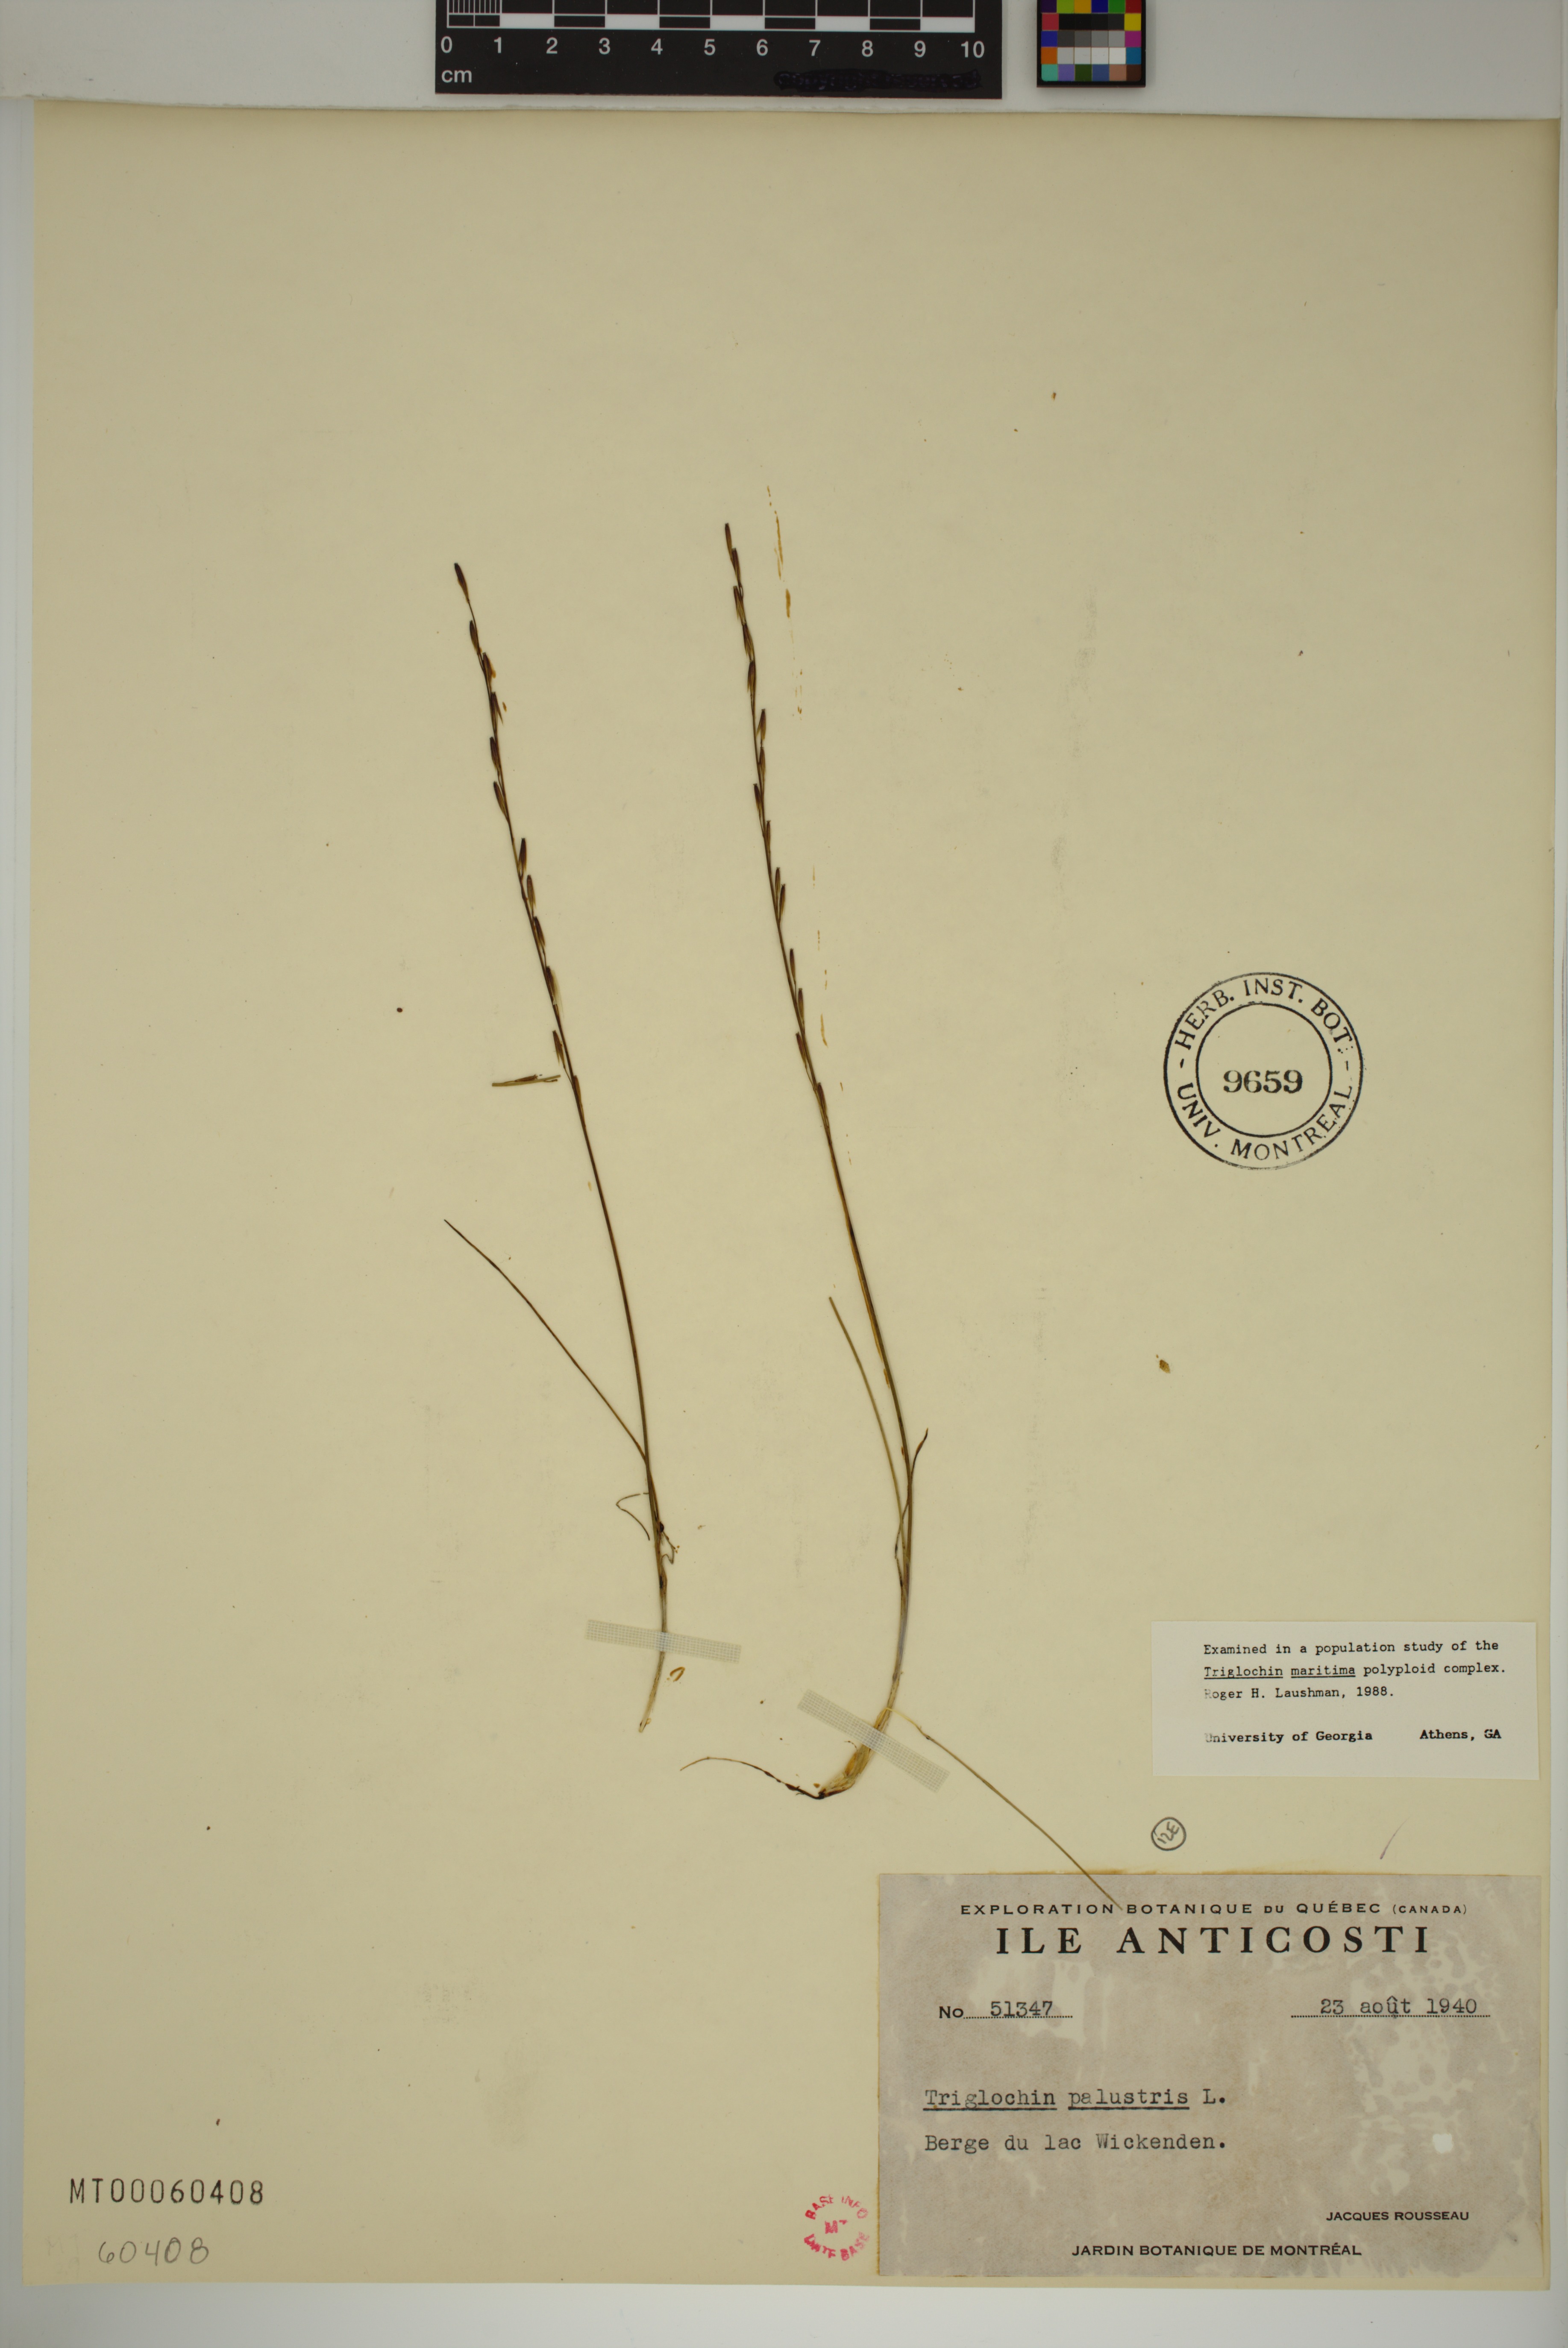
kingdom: Plantae
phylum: Tracheophyta
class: Liliopsida
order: Alismatales
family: Juncaginaceae
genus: Triglochin
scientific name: Triglochin palustris
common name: Marsh arrowgrass
